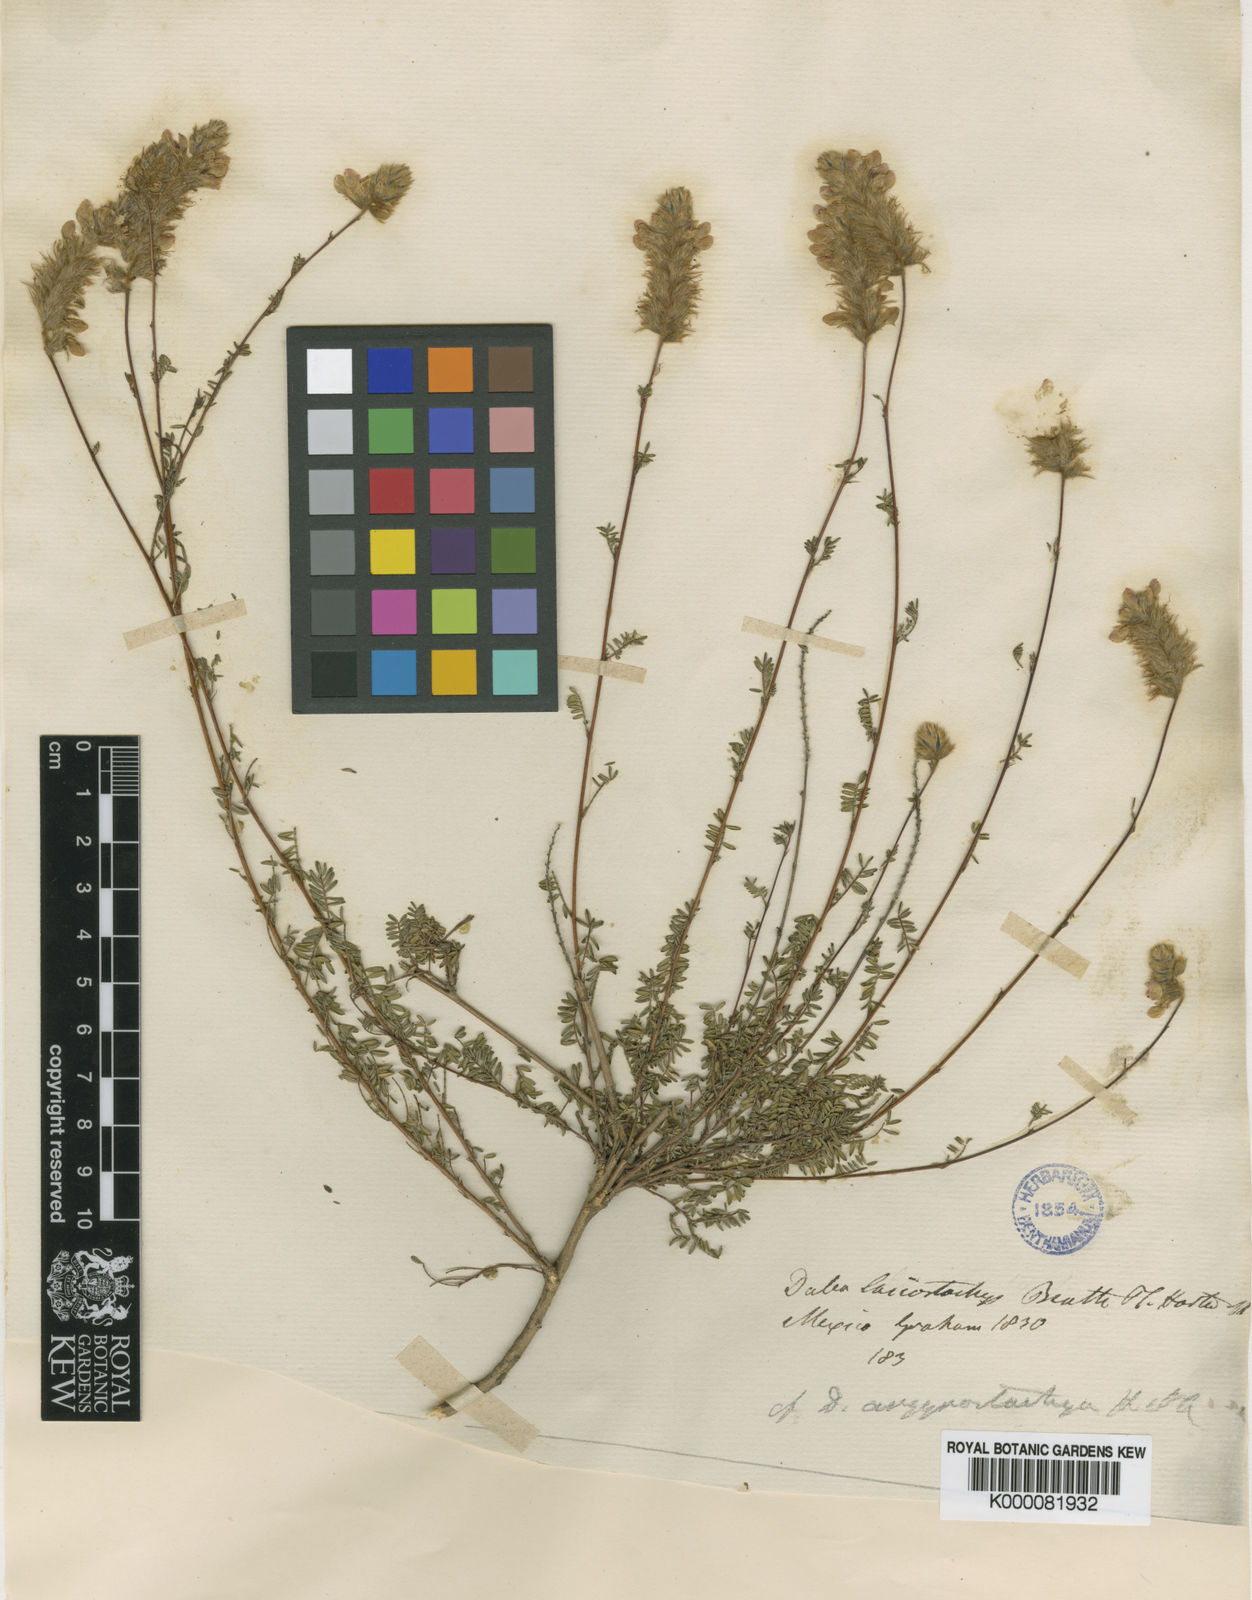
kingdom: Plantae
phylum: Tracheophyta
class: Magnoliopsida
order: Fabales
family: Fabaceae
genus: Dalea
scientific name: Dalea versicolor
